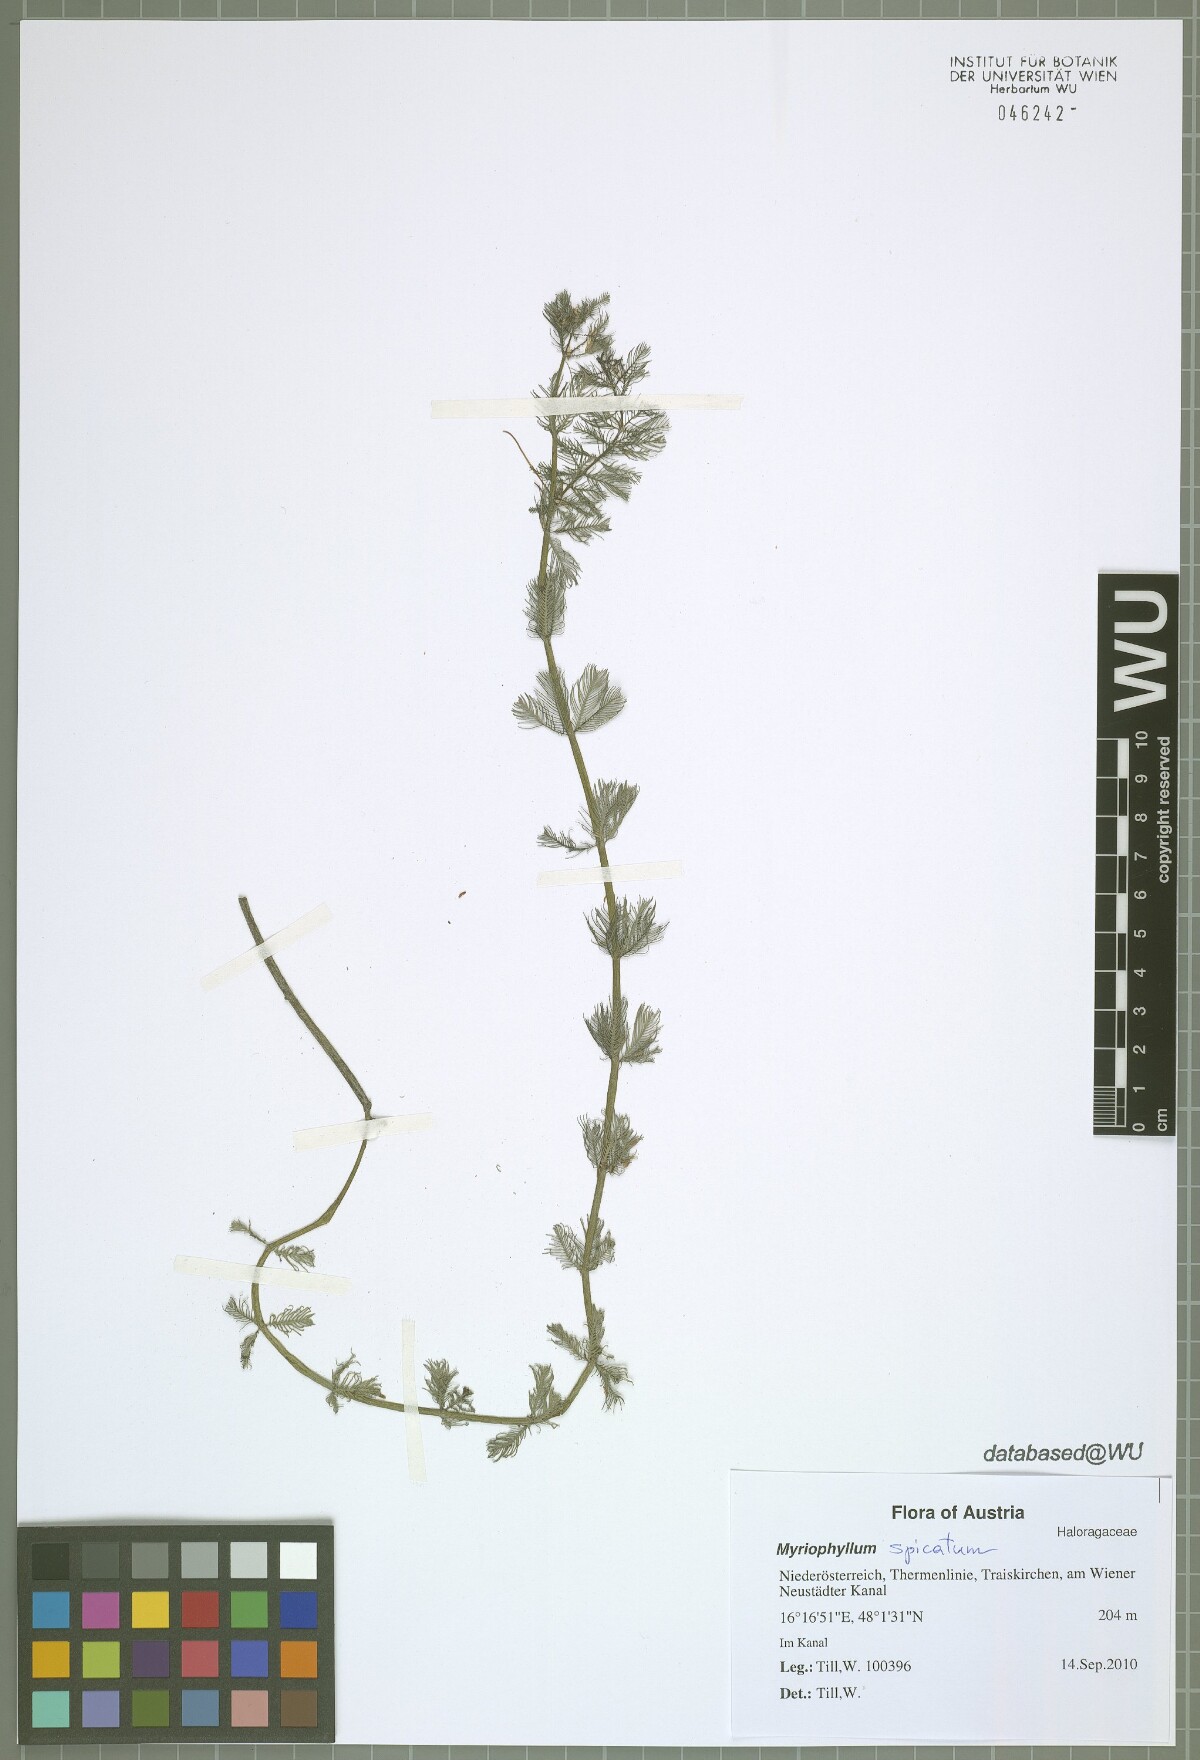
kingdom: Plantae
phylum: Tracheophyta
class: Magnoliopsida
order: Saxifragales
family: Haloragaceae
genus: Myriophyllum
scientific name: Myriophyllum spicatum
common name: Spiked water-milfoil
